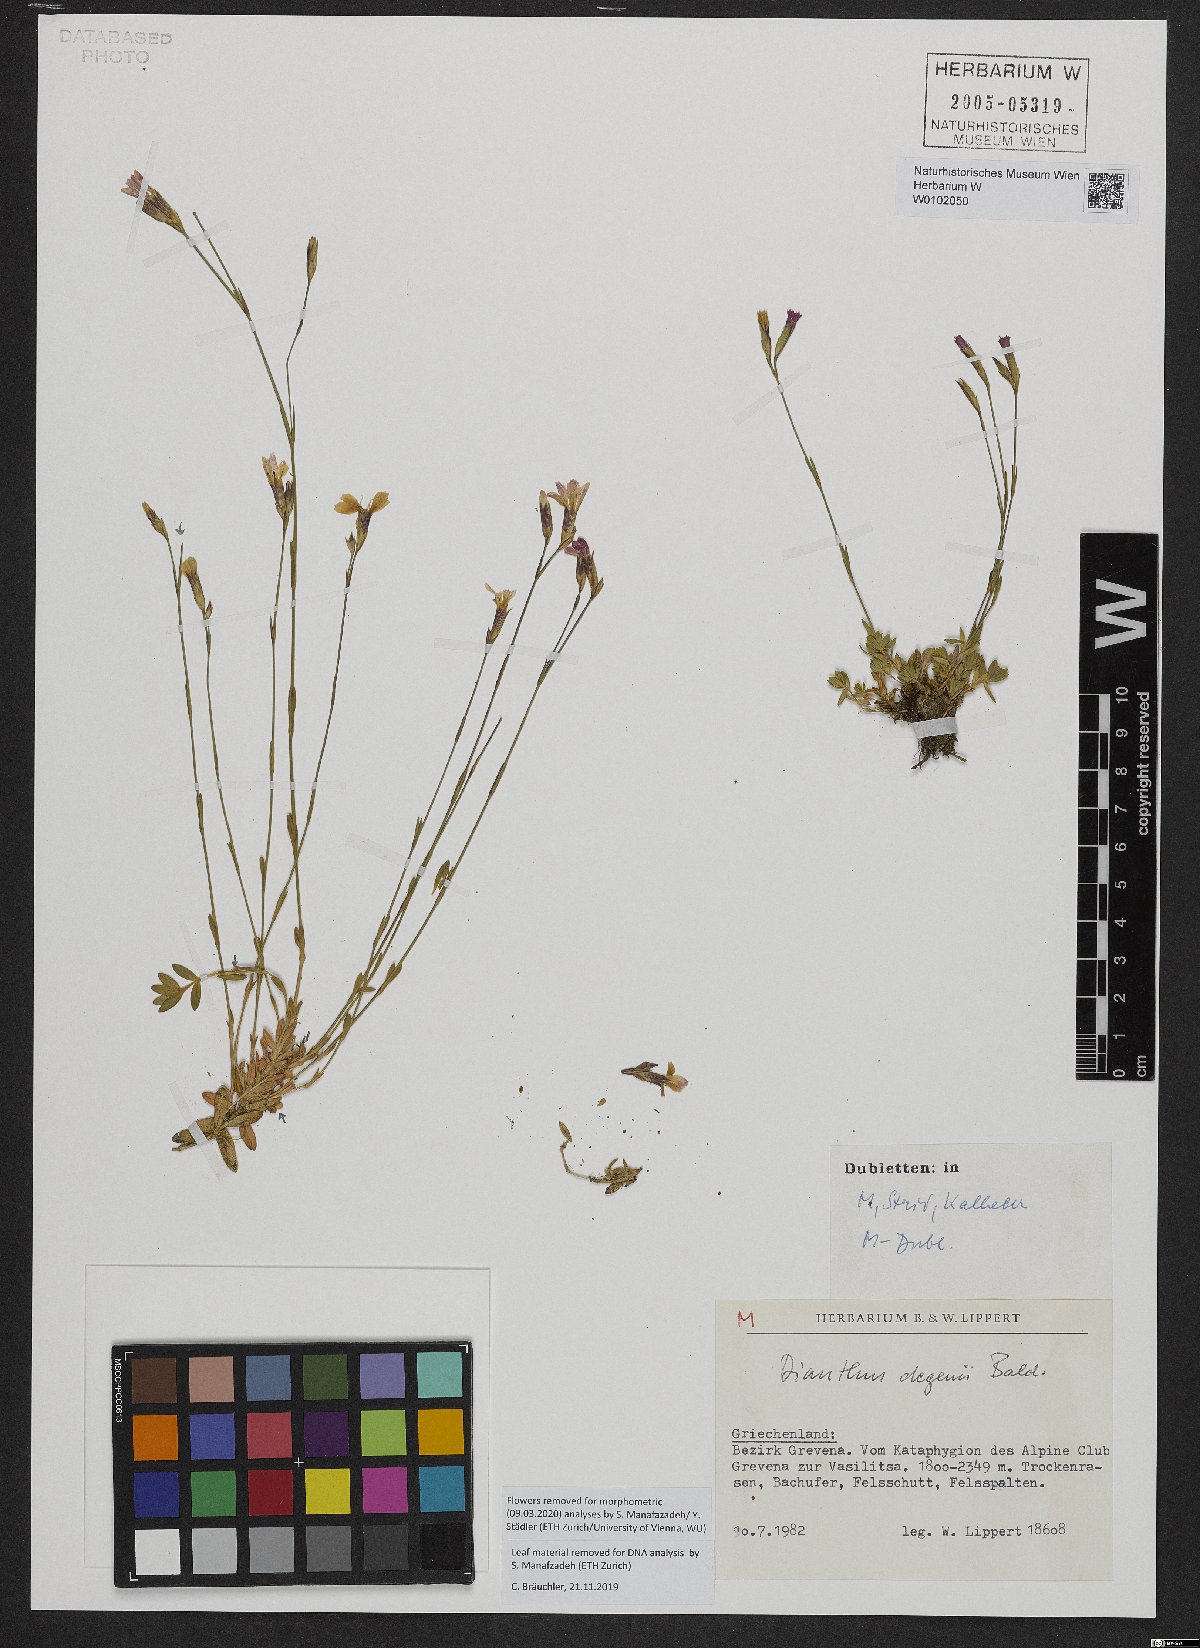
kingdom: Plantae
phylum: Tracheophyta
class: Magnoliopsida
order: Caryophyllales
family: Caryophyllaceae
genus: Dianthus
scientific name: Dianthus deltoides
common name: Maiden pink
